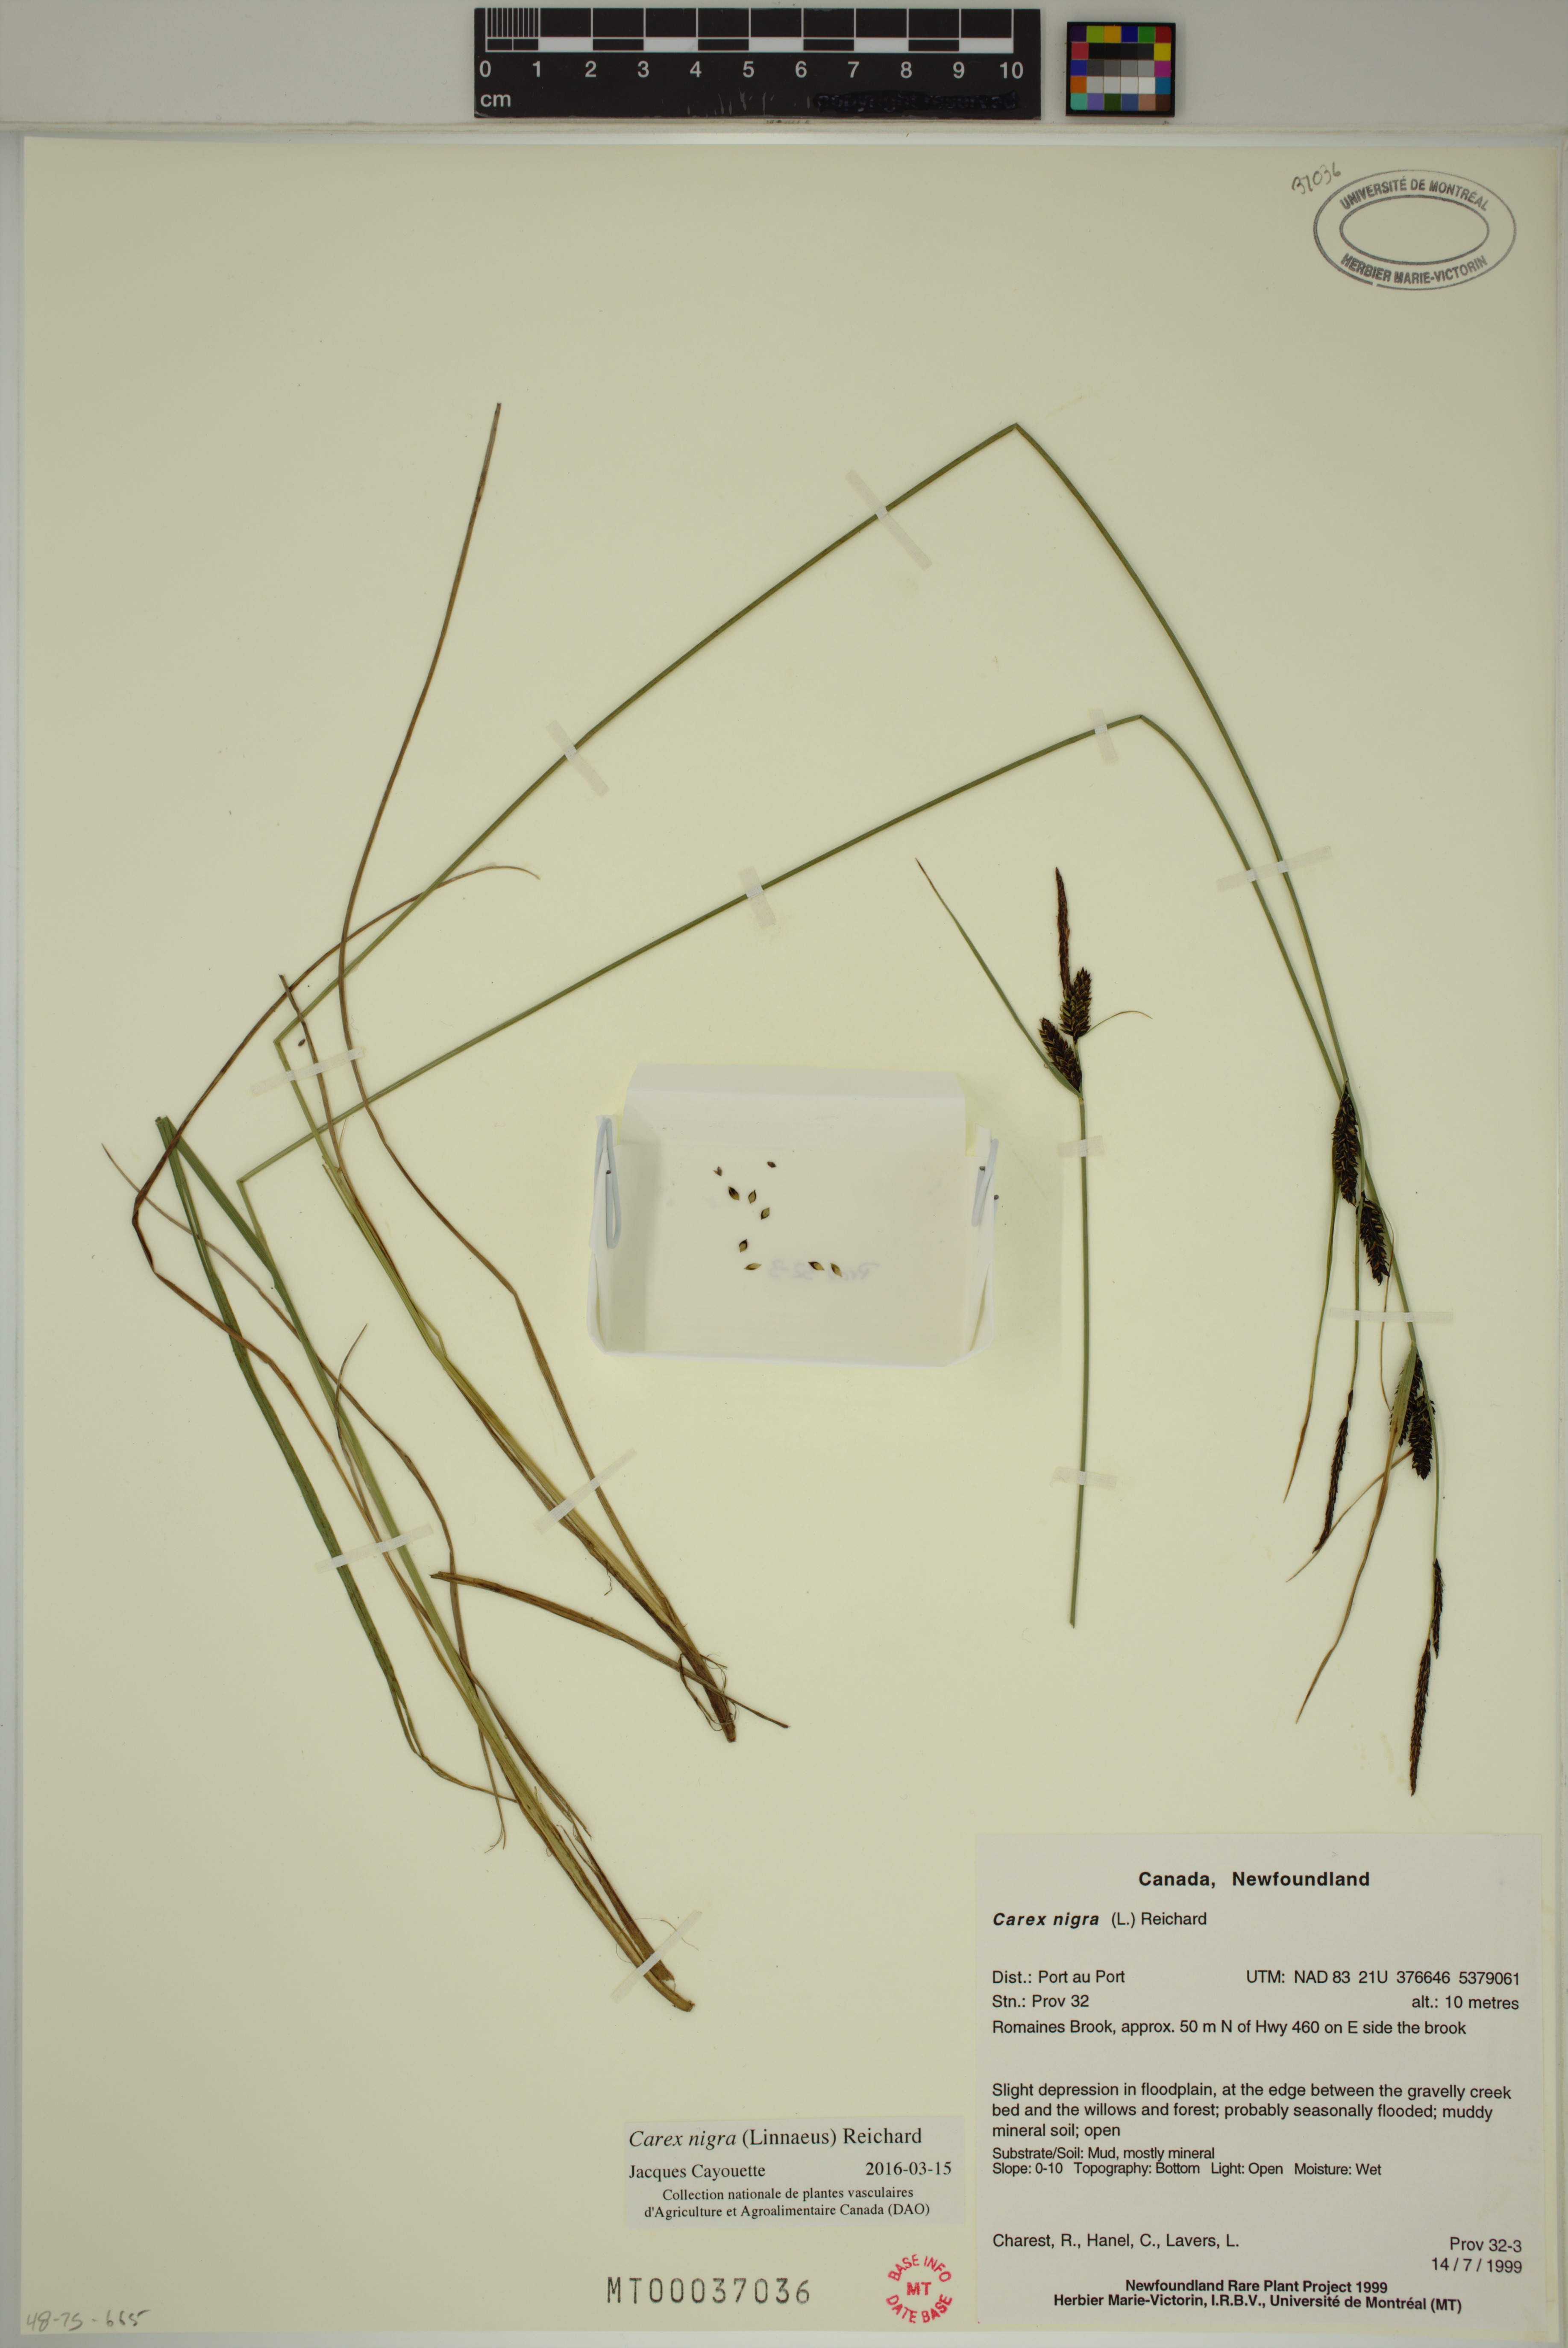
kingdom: Plantae
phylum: Tracheophyta
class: Liliopsida
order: Poales
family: Cyperaceae
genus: Carex
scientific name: Carex nigra
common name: Common sedge
